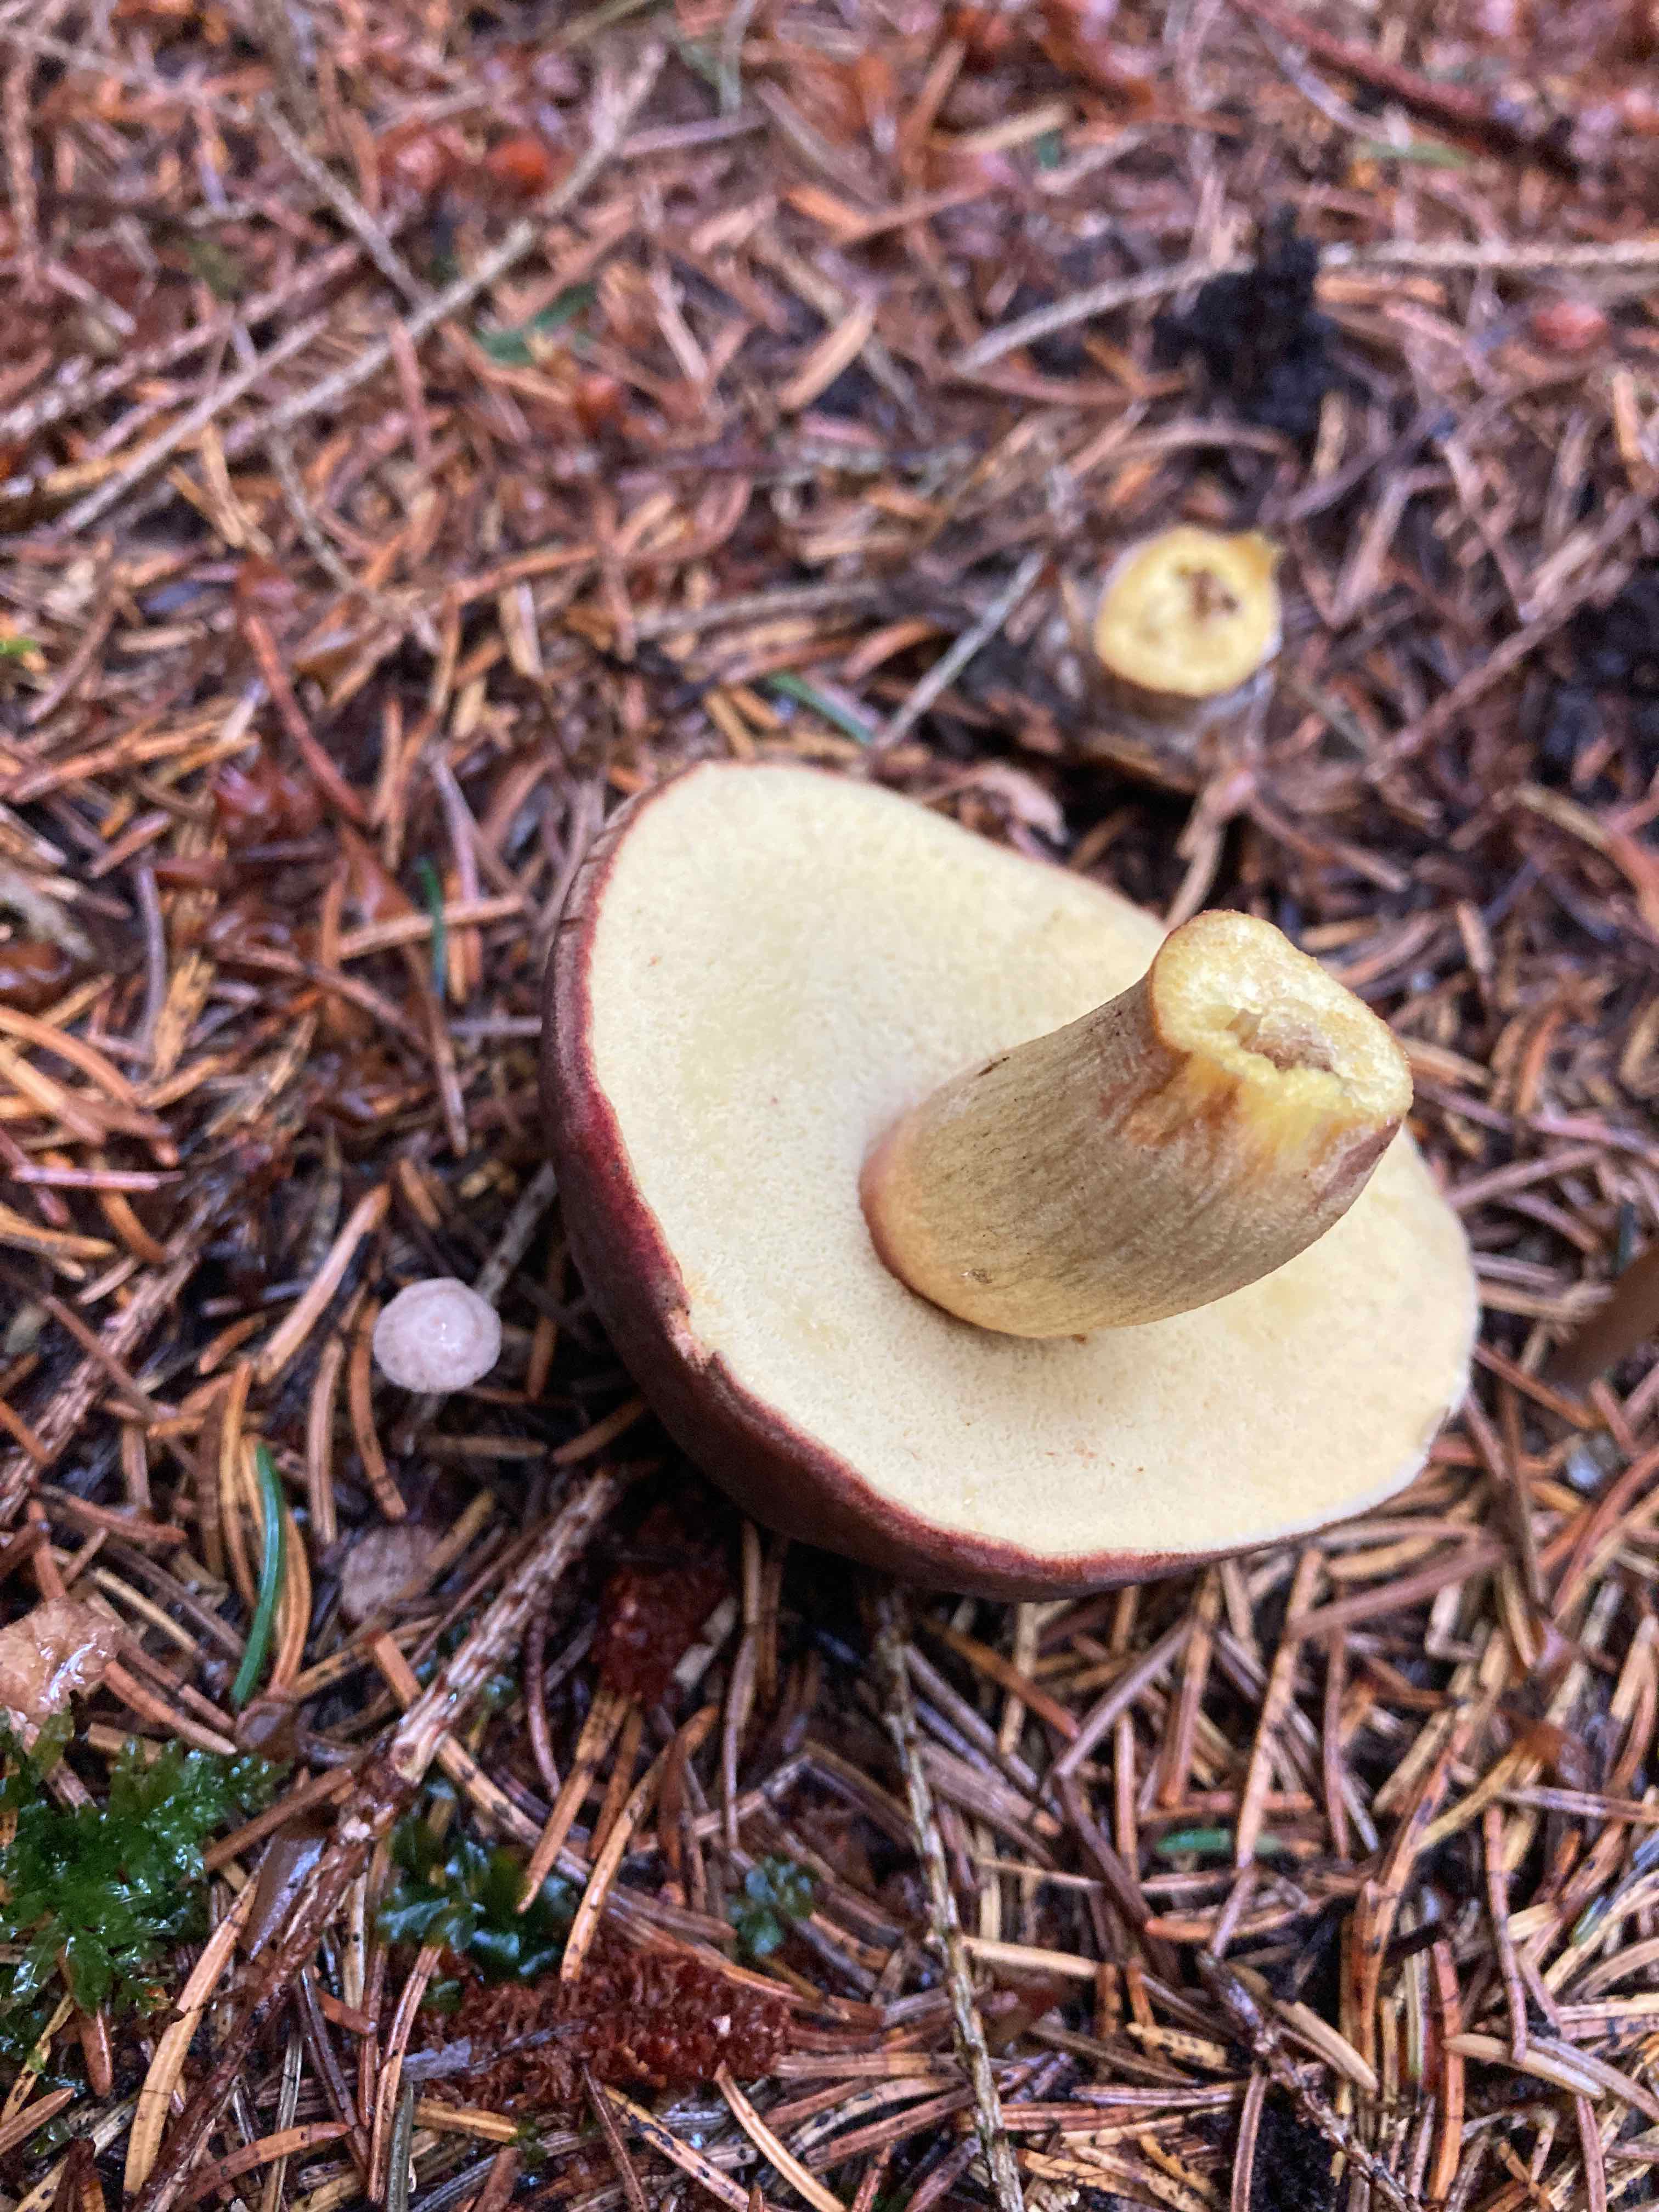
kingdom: Fungi
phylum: Basidiomycota
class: Agaricomycetes
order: Boletales
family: Boletaceae
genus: Xerocomellus
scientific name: Xerocomellus pruinatus
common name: dugget rørhat
